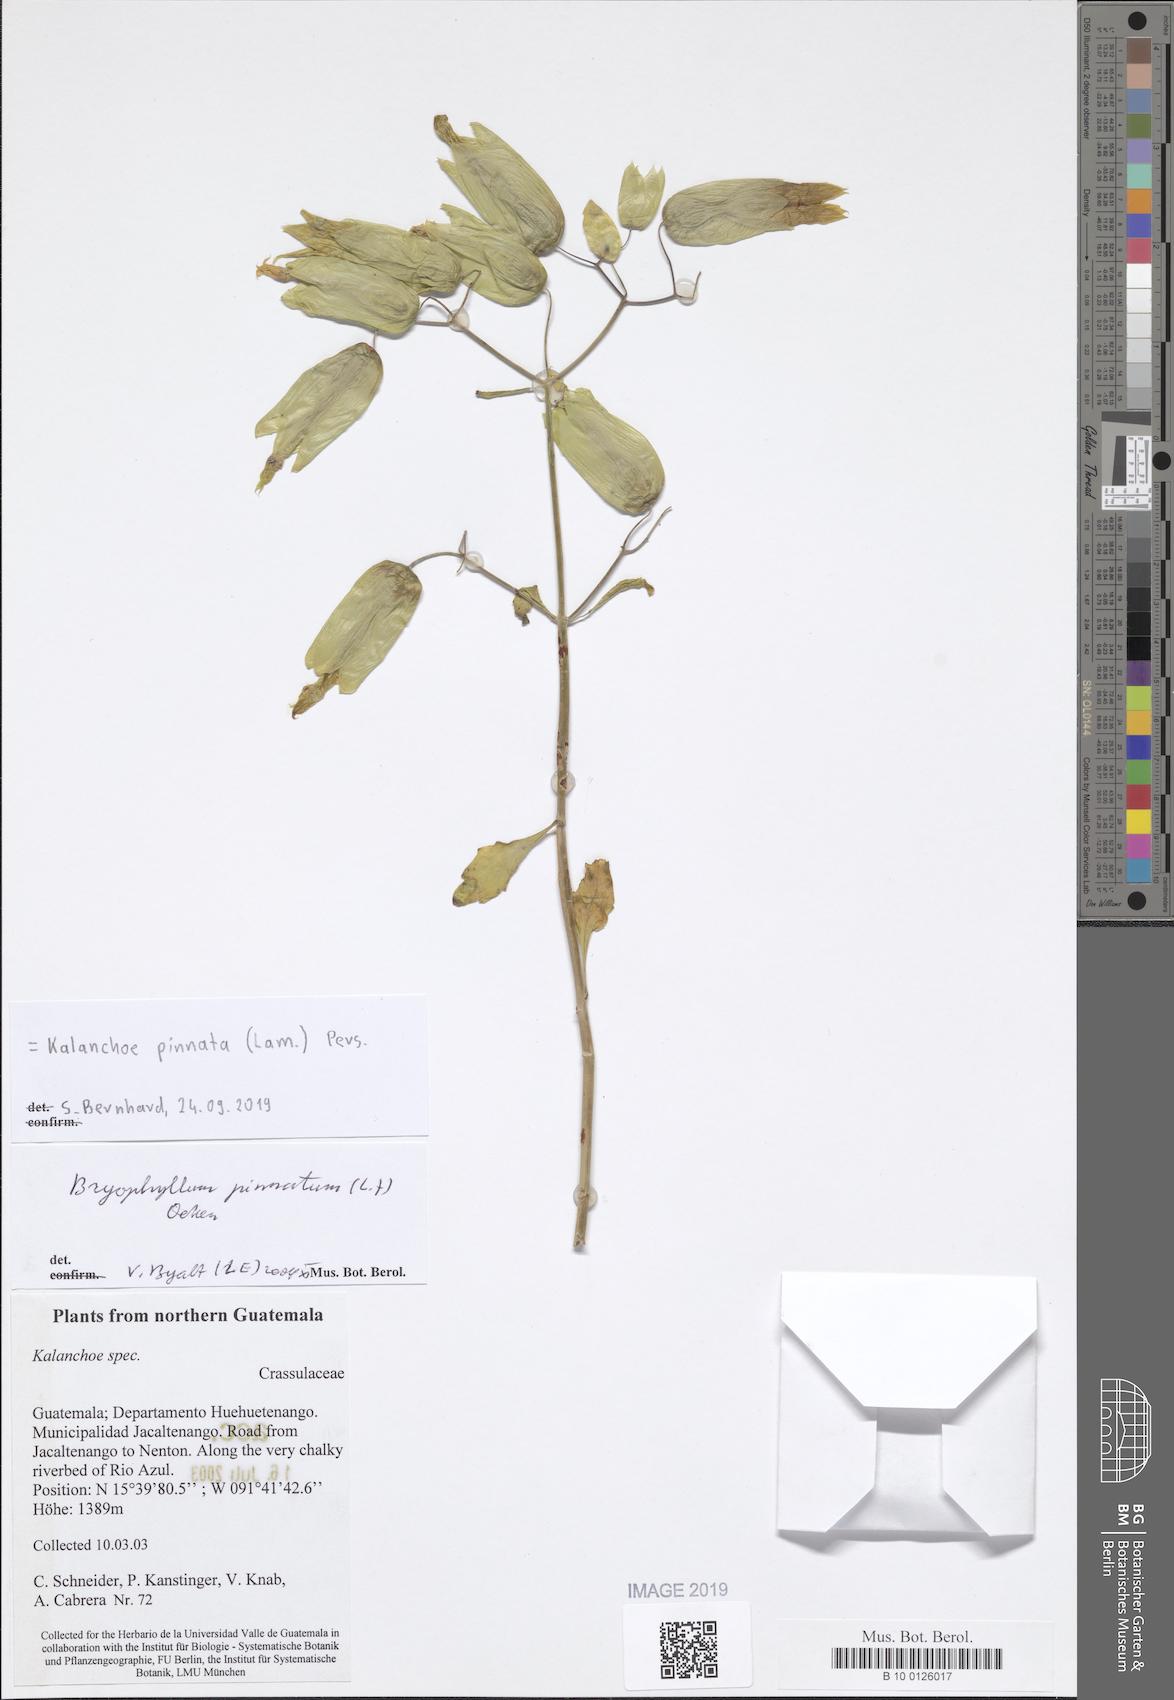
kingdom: Plantae
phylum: Tracheophyta
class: Magnoliopsida
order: Saxifragales
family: Crassulaceae
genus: Kalanchoe
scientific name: Kalanchoe pinnata
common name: Cathedral bells
